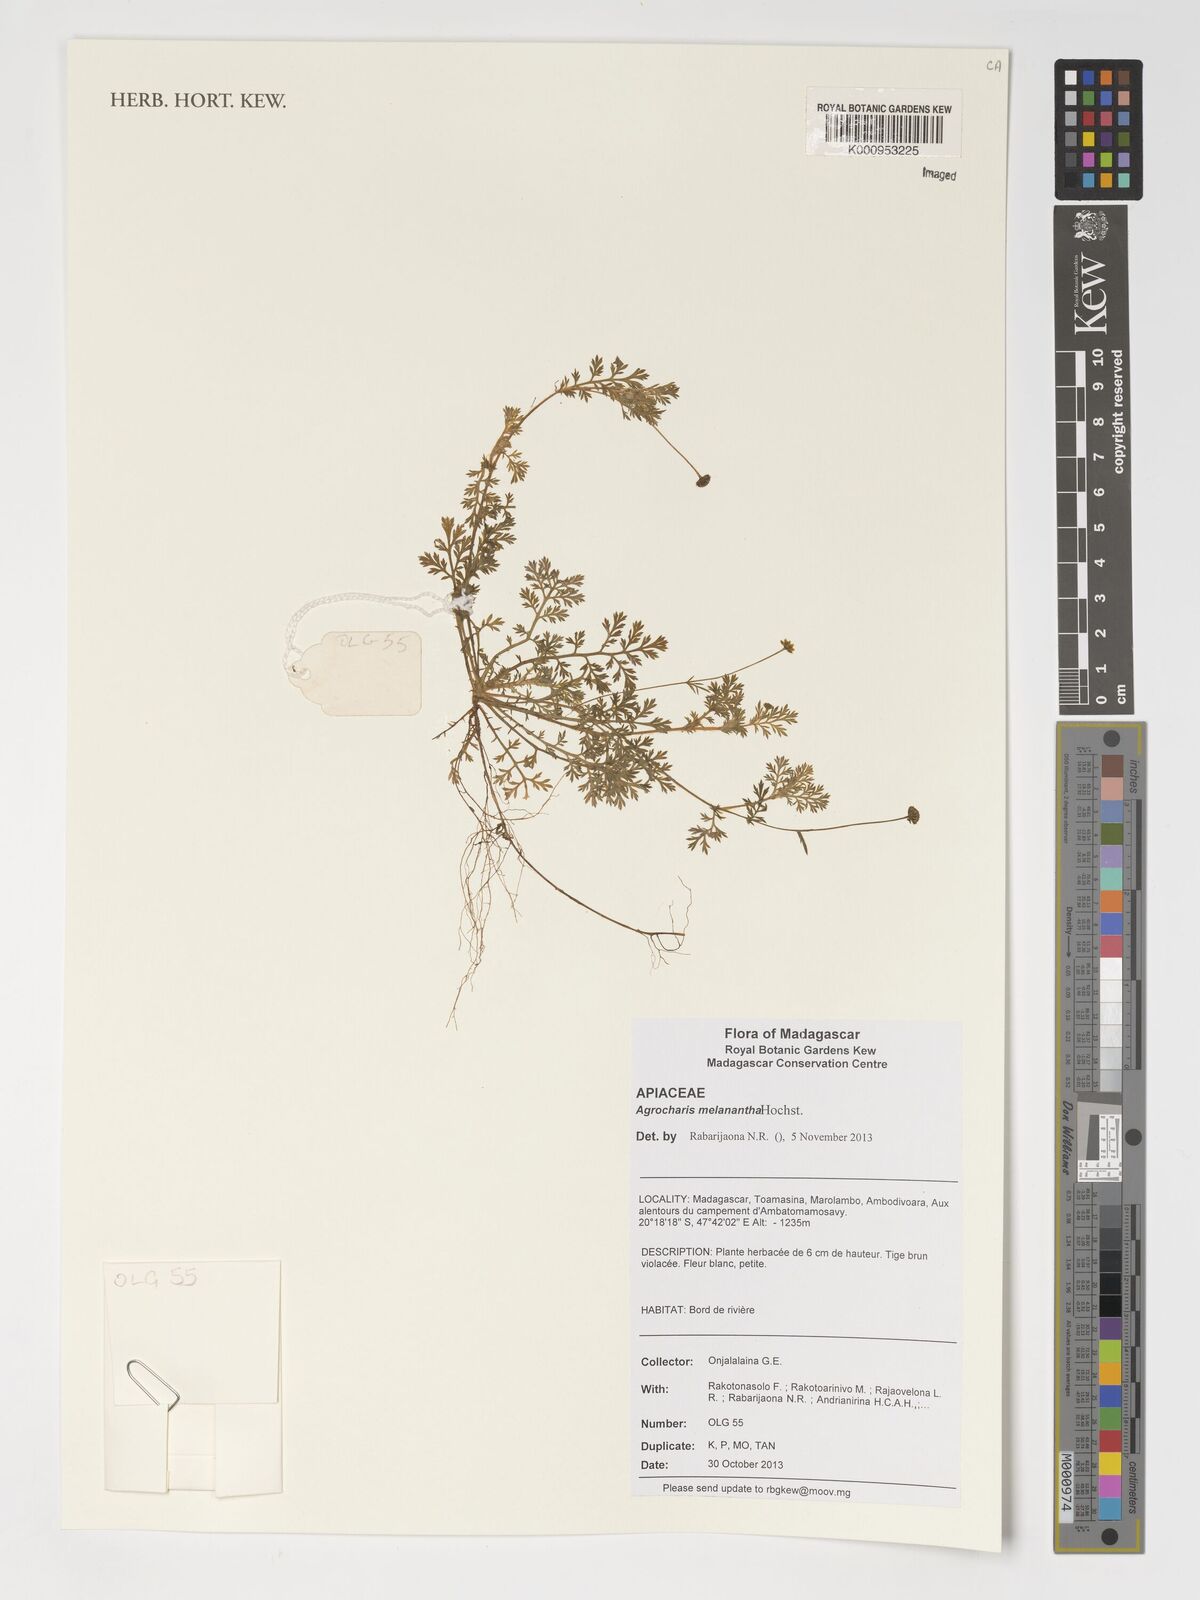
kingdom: Plantae
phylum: Tracheophyta
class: Magnoliopsida
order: Apiales
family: Apiaceae
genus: Daucus
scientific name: Daucus melananthus
